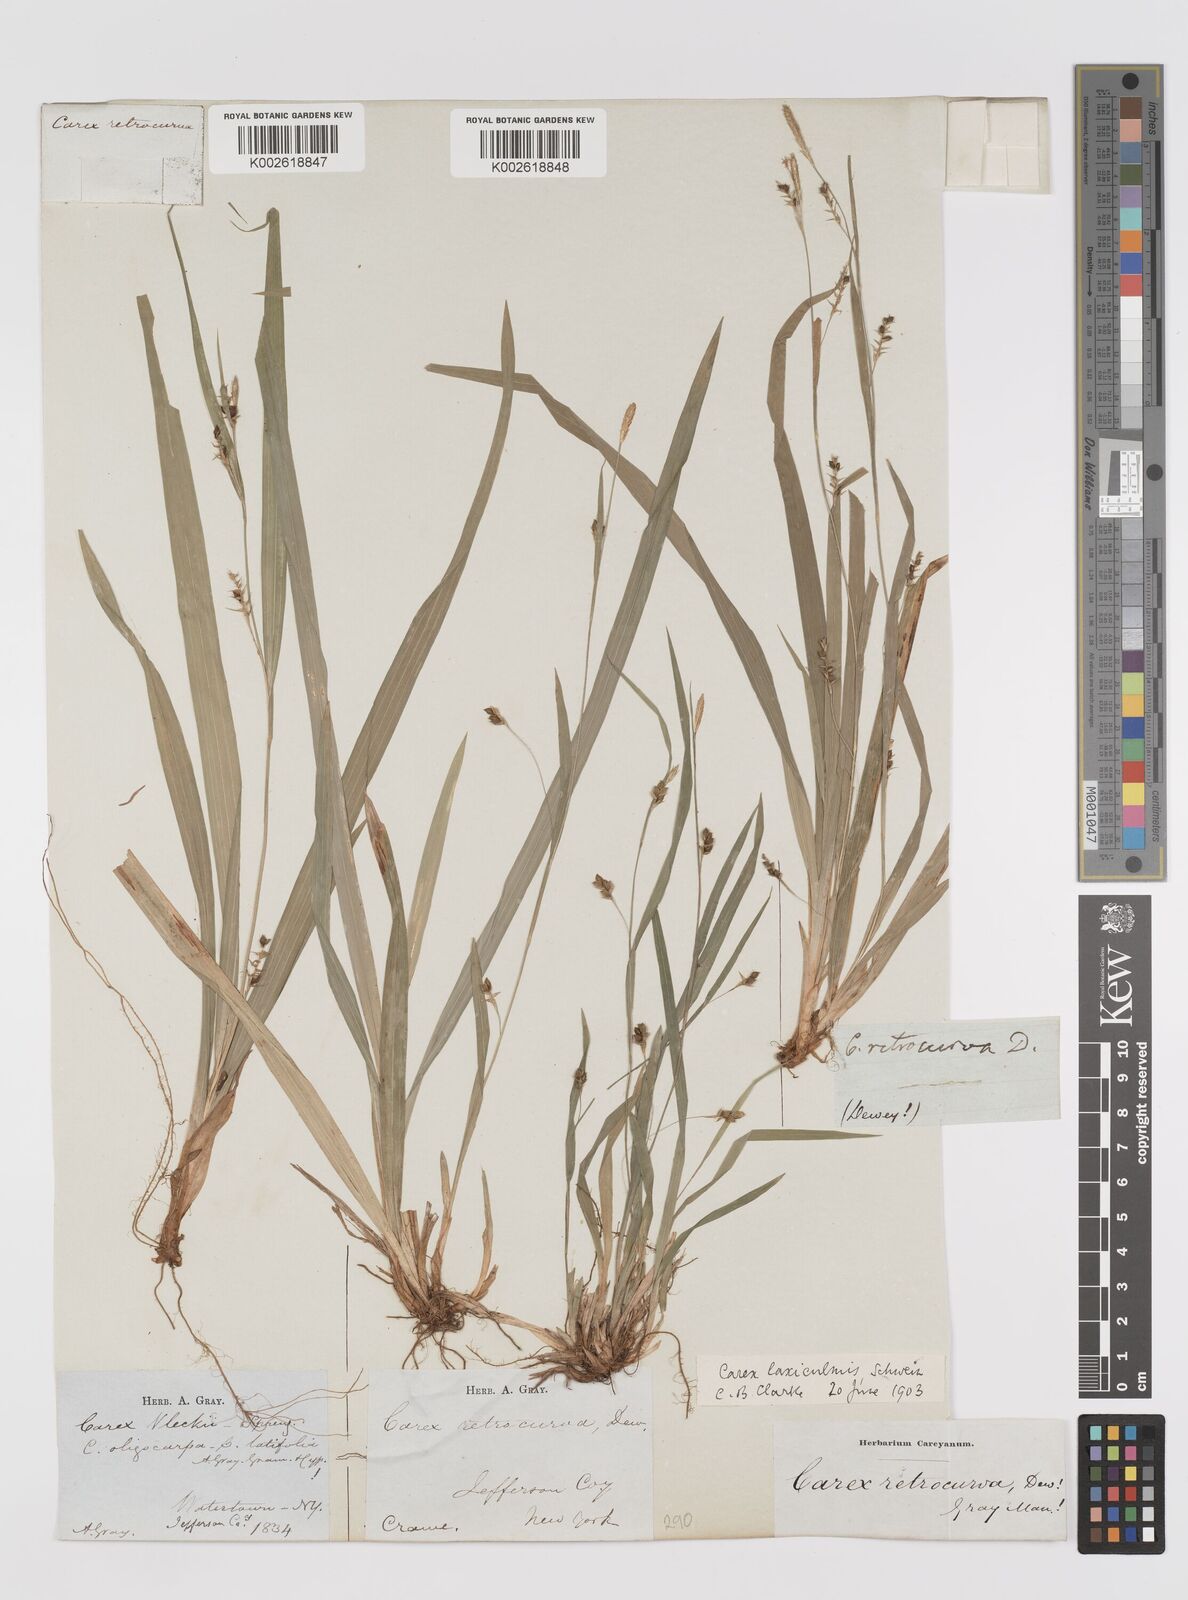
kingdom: Plantae
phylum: Tracheophyta
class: Liliopsida
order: Poales
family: Cyperaceae
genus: Carex
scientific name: Carex laxiculmis
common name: Spreading sedge
